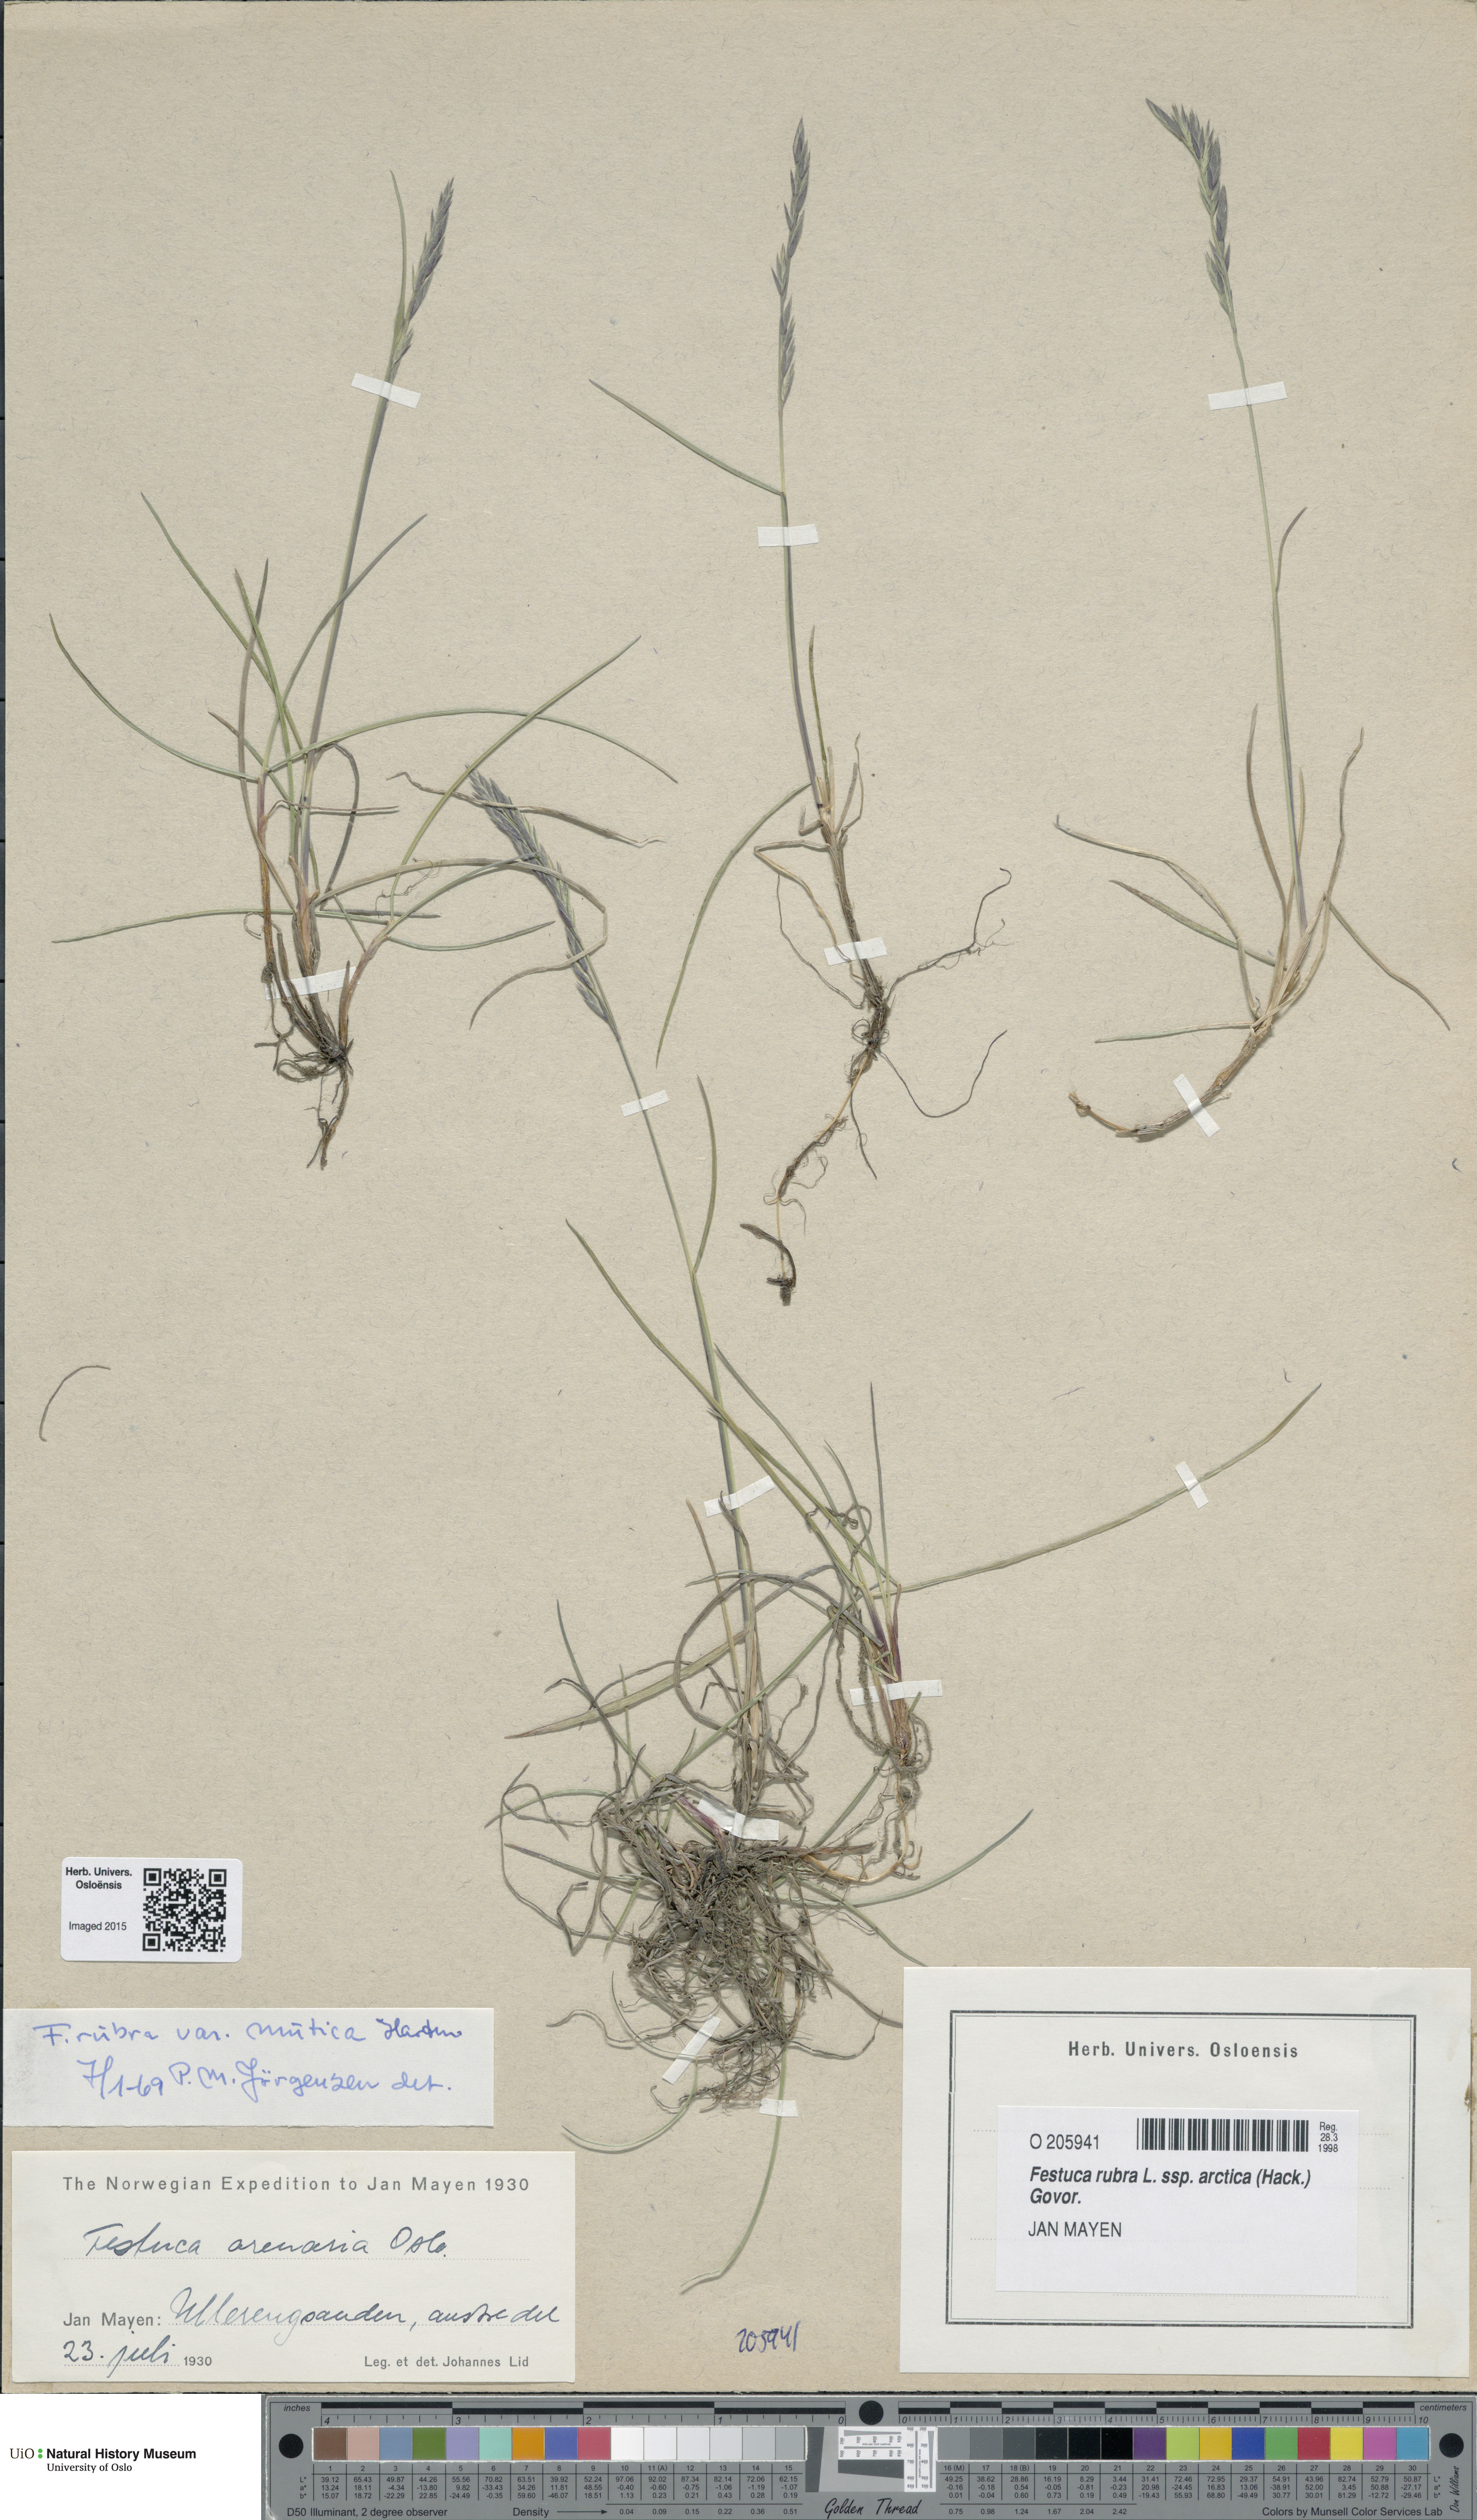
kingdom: Plantae
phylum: Tracheophyta
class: Liliopsida
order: Poales
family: Poaceae
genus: Festuca
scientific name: Festuca richardsonii
